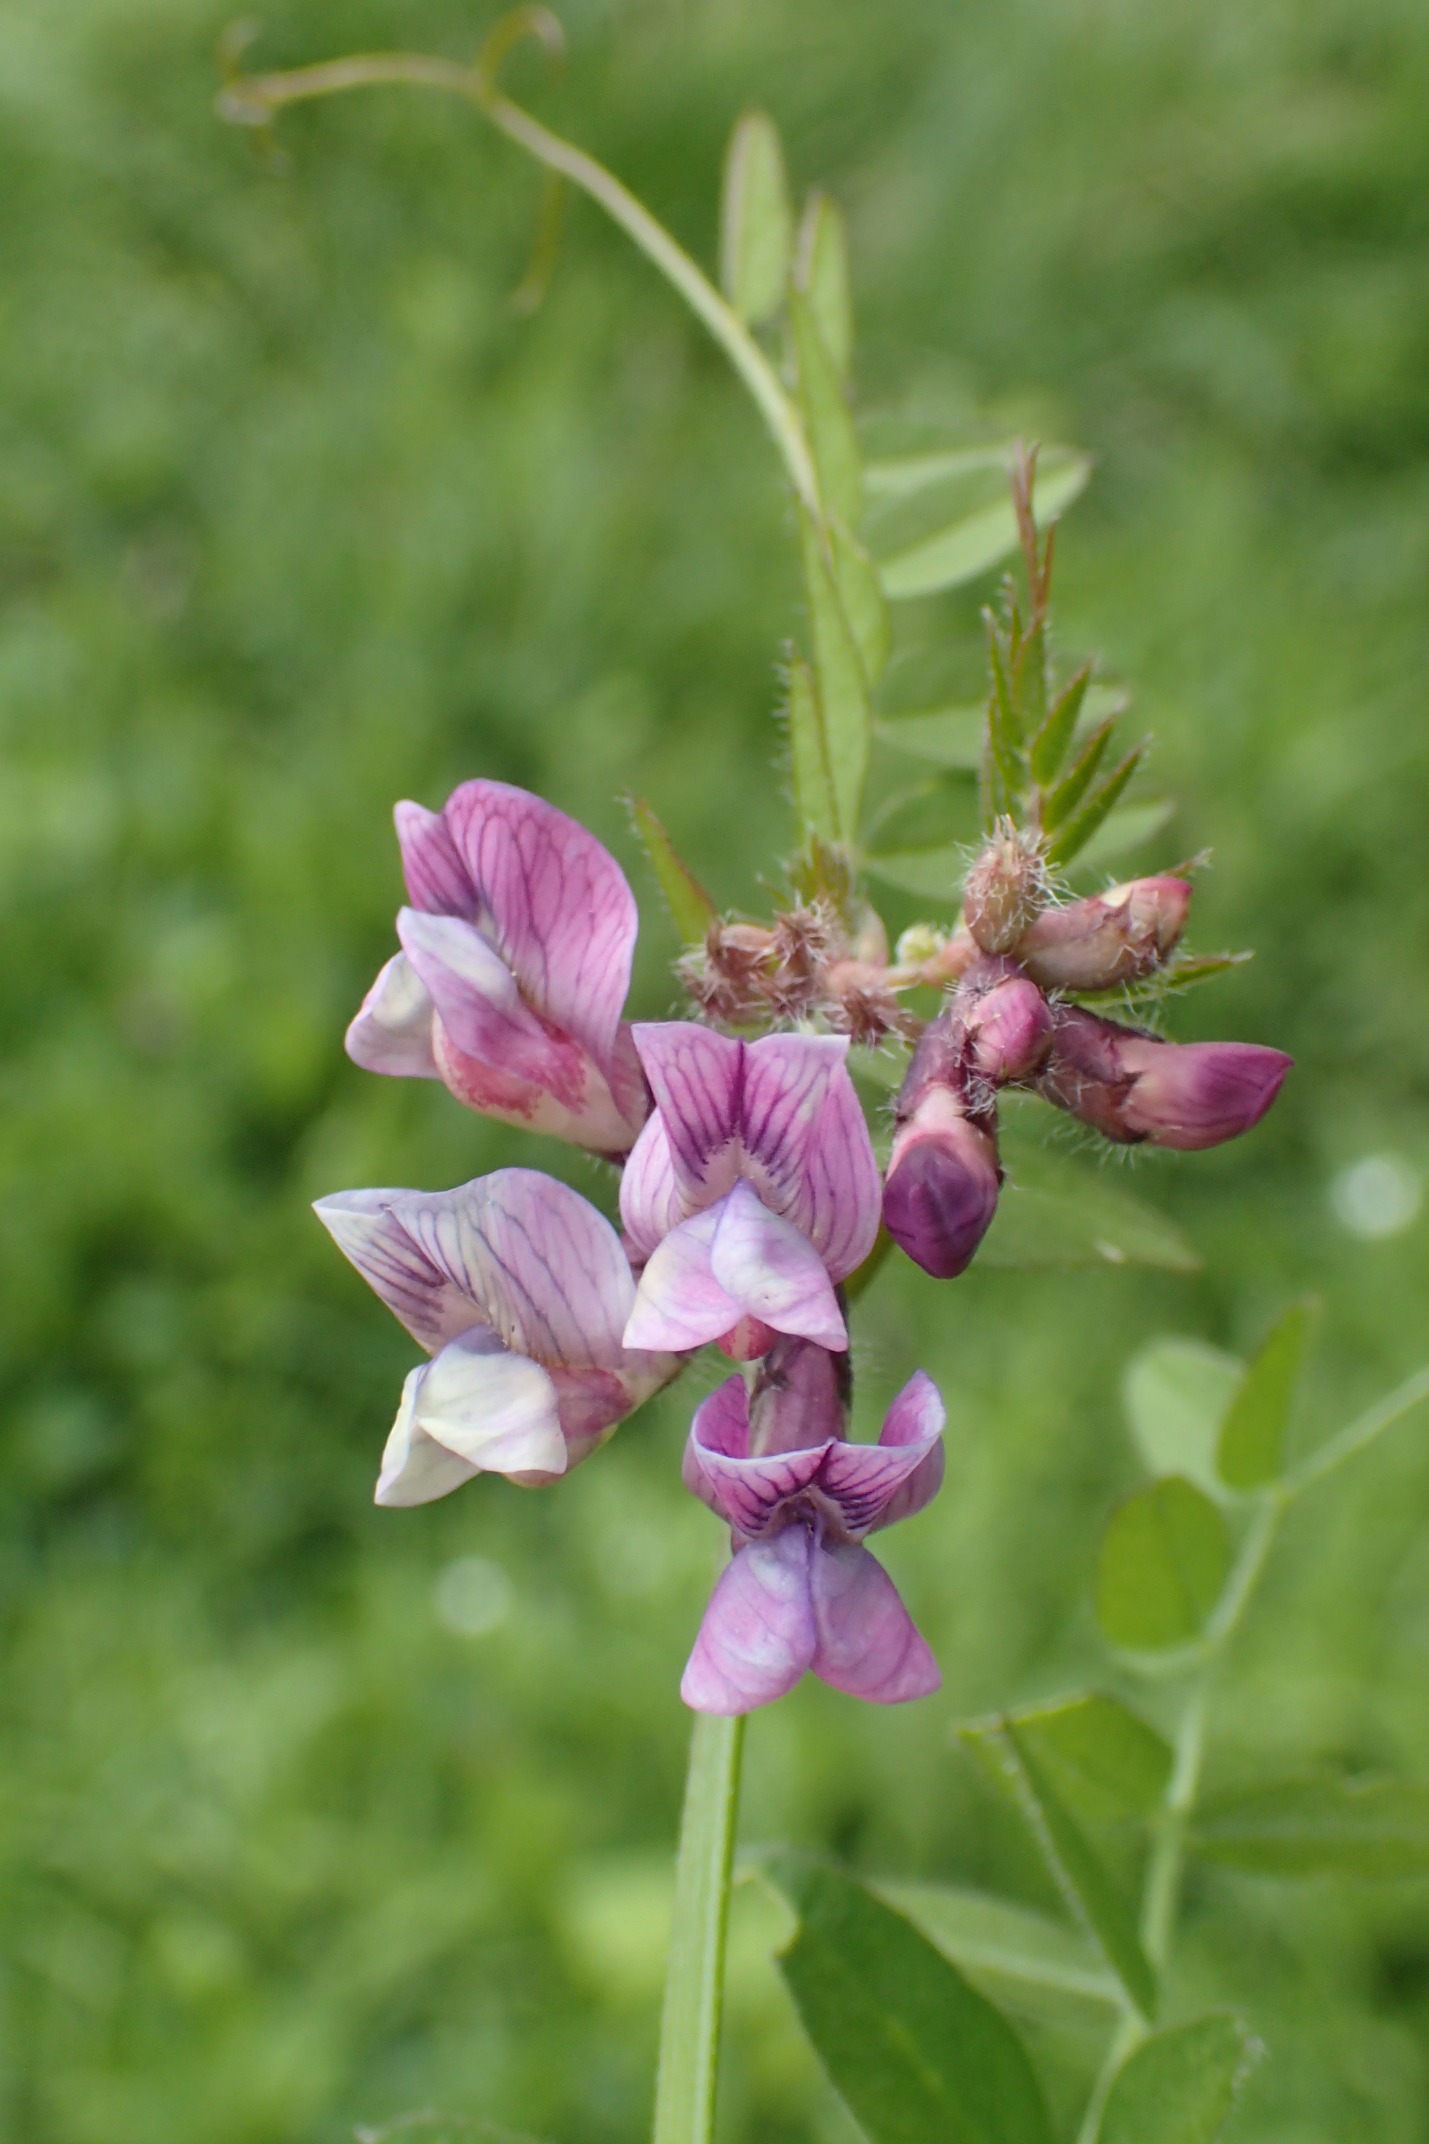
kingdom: Plantae
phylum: Tracheophyta
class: Magnoliopsida
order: Fabales
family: Fabaceae
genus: Vicia
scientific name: Vicia sepium
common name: Gærde-vikke
